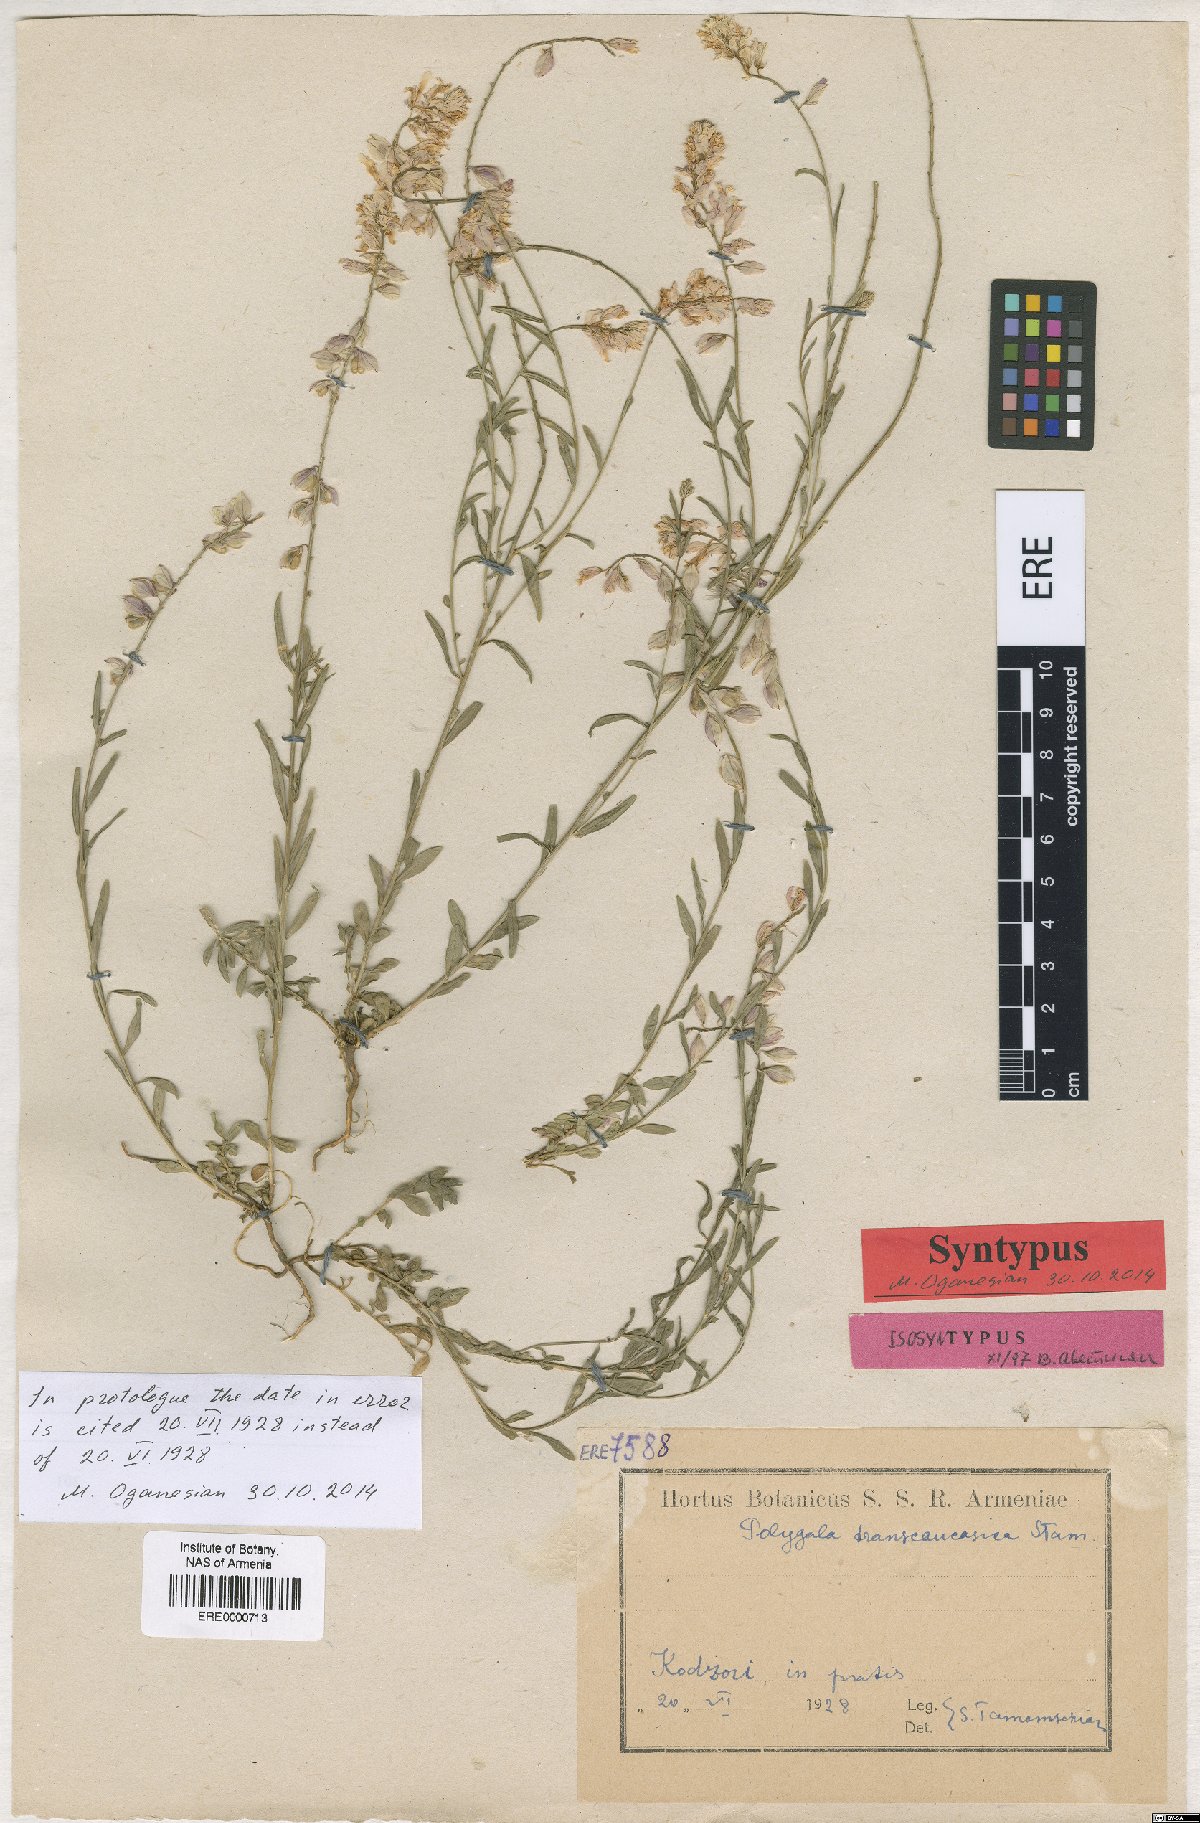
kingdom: Plantae
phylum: Tracheophyta
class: Magnoliopsida
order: Fabales
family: Polygalaceae
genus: Polygala
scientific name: Polygala transcaucasica
